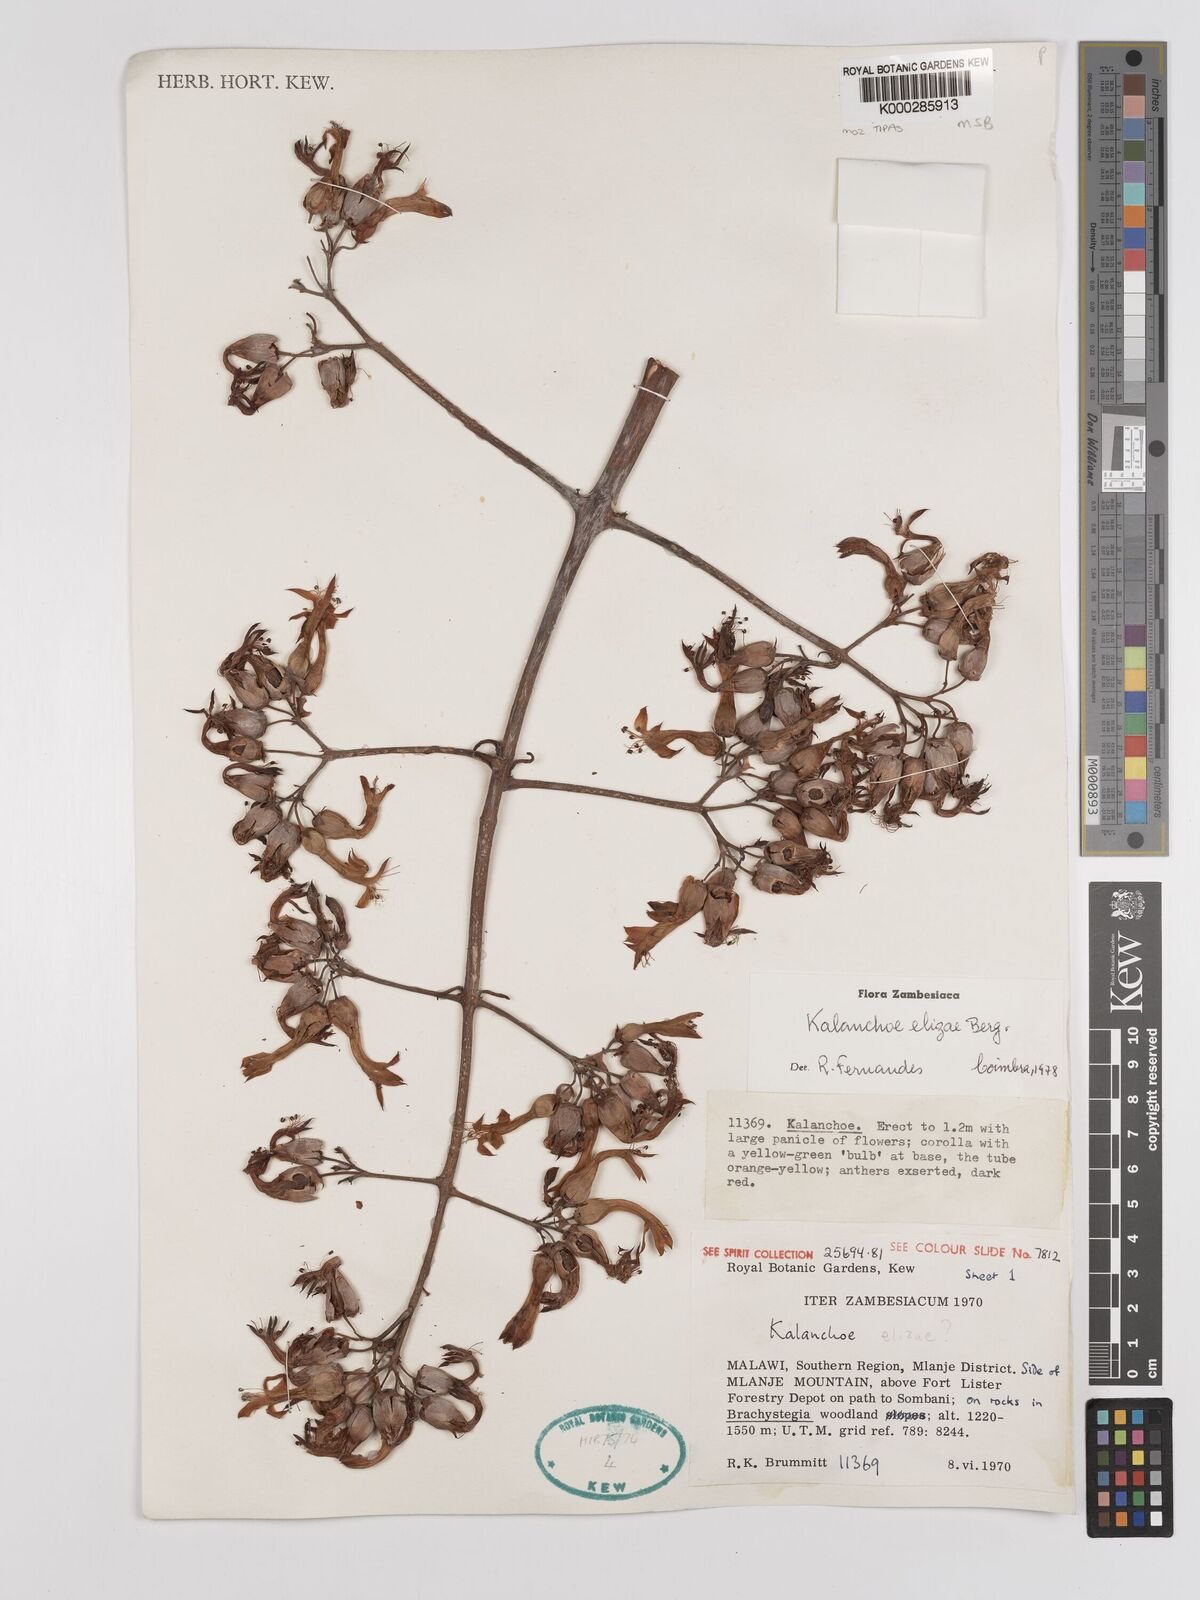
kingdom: Plantae
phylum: Tracheophyta
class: Magnoliopsida
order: Saxifragales
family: Crassulaceae
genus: Kalanchoe
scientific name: Kalanchoe elizae
